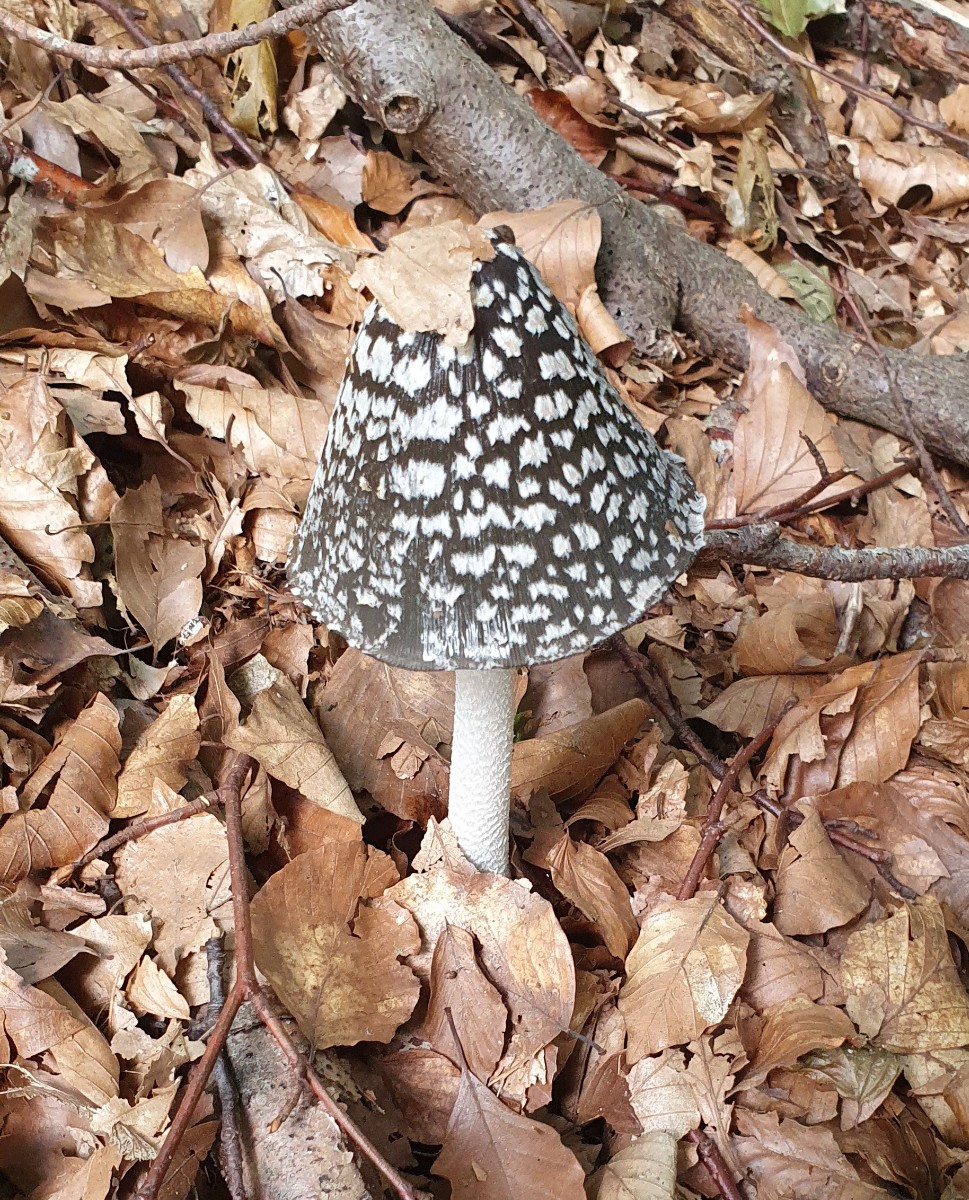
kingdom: Fungi
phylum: Basidiomycota
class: Agaricomycetes
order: Agaricales
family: Psathyrellaceae
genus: Coprinopsis
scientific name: Coprinopsis picacea
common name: skade-blækhat
